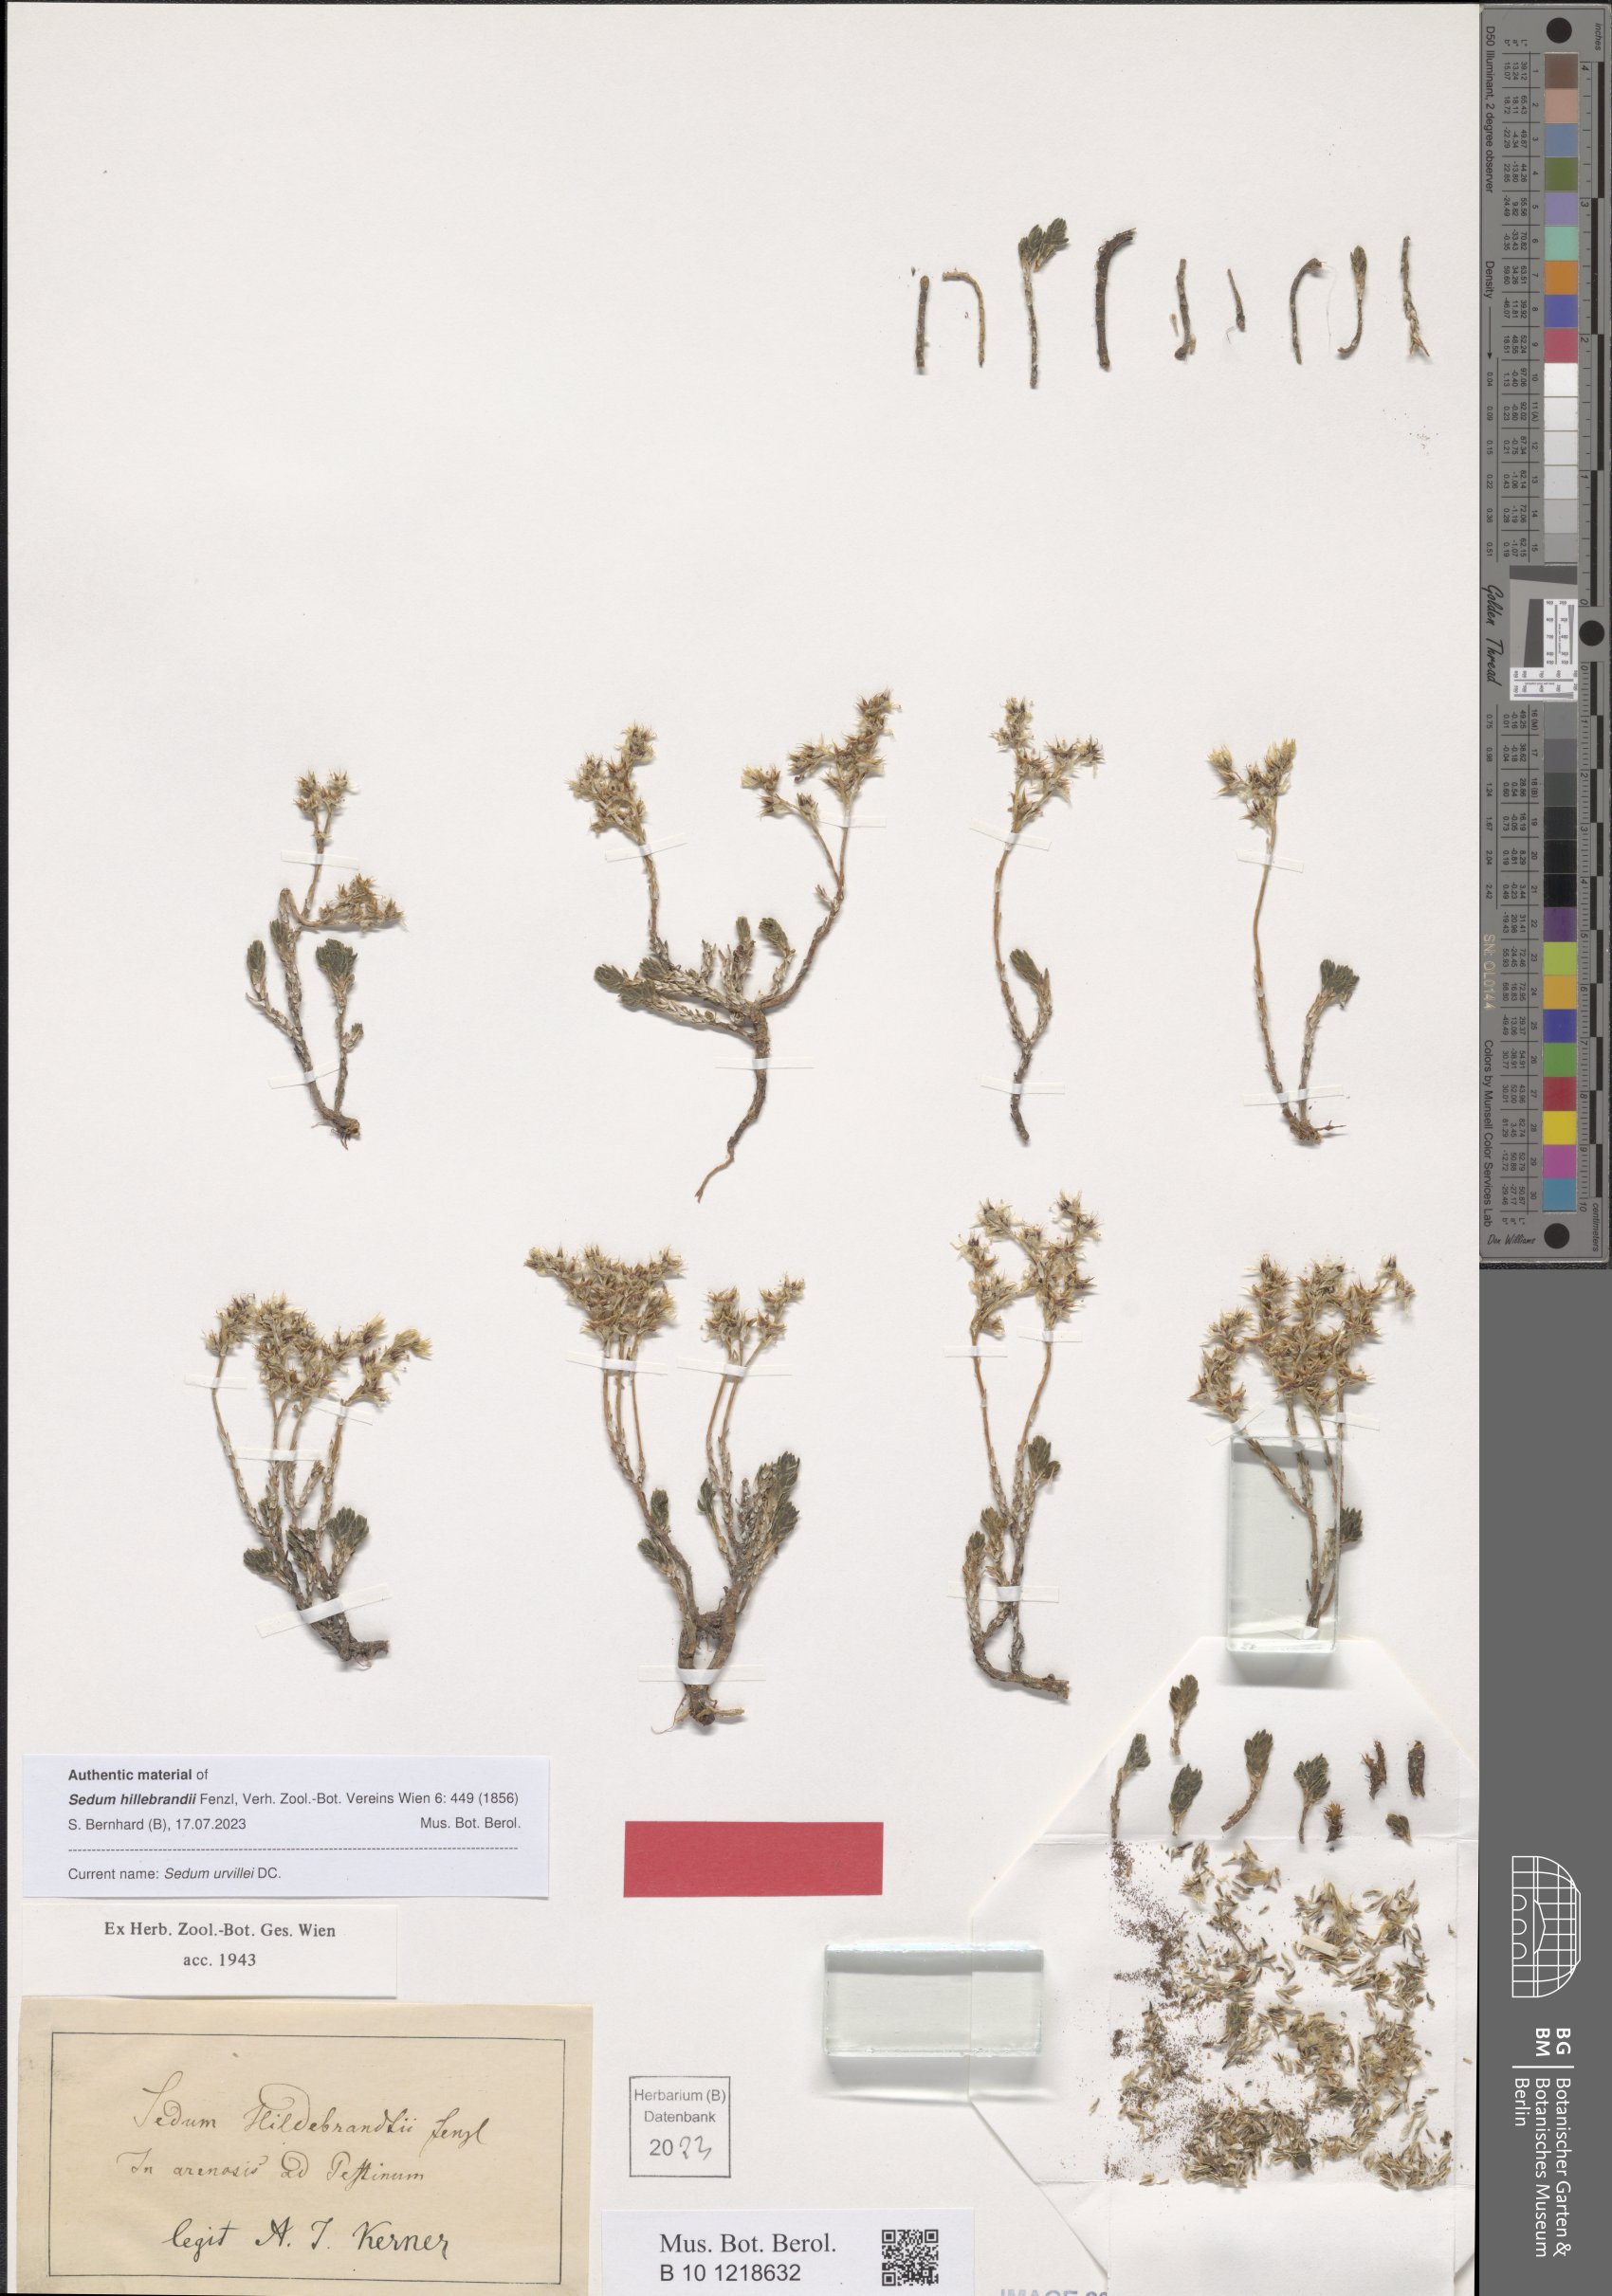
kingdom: Plantae
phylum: Tracheophyta
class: Magnoliopsida
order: Saxifragales
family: Crassulaceae
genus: Sedum
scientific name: Sedum urvillei
